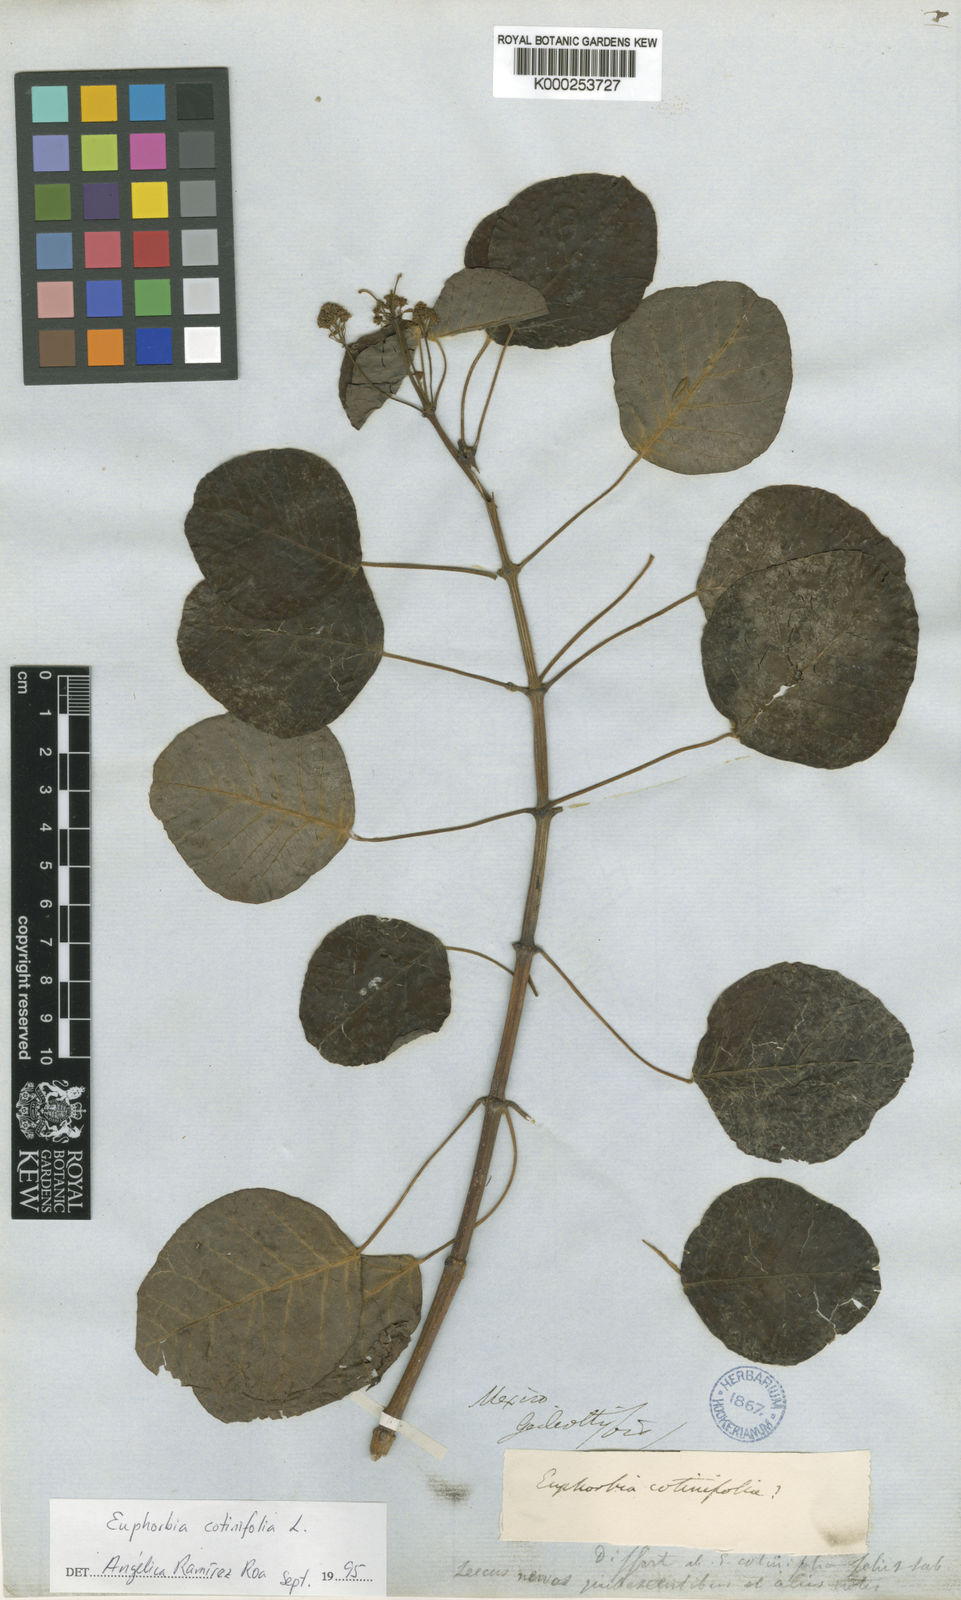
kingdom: Plantae
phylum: Tracheophyta
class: Magnoliopsida
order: Malpighiales
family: Euphorbiaceae
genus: Euphorbia
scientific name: Euphorbia cotinifolia
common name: Tropical smokebush
